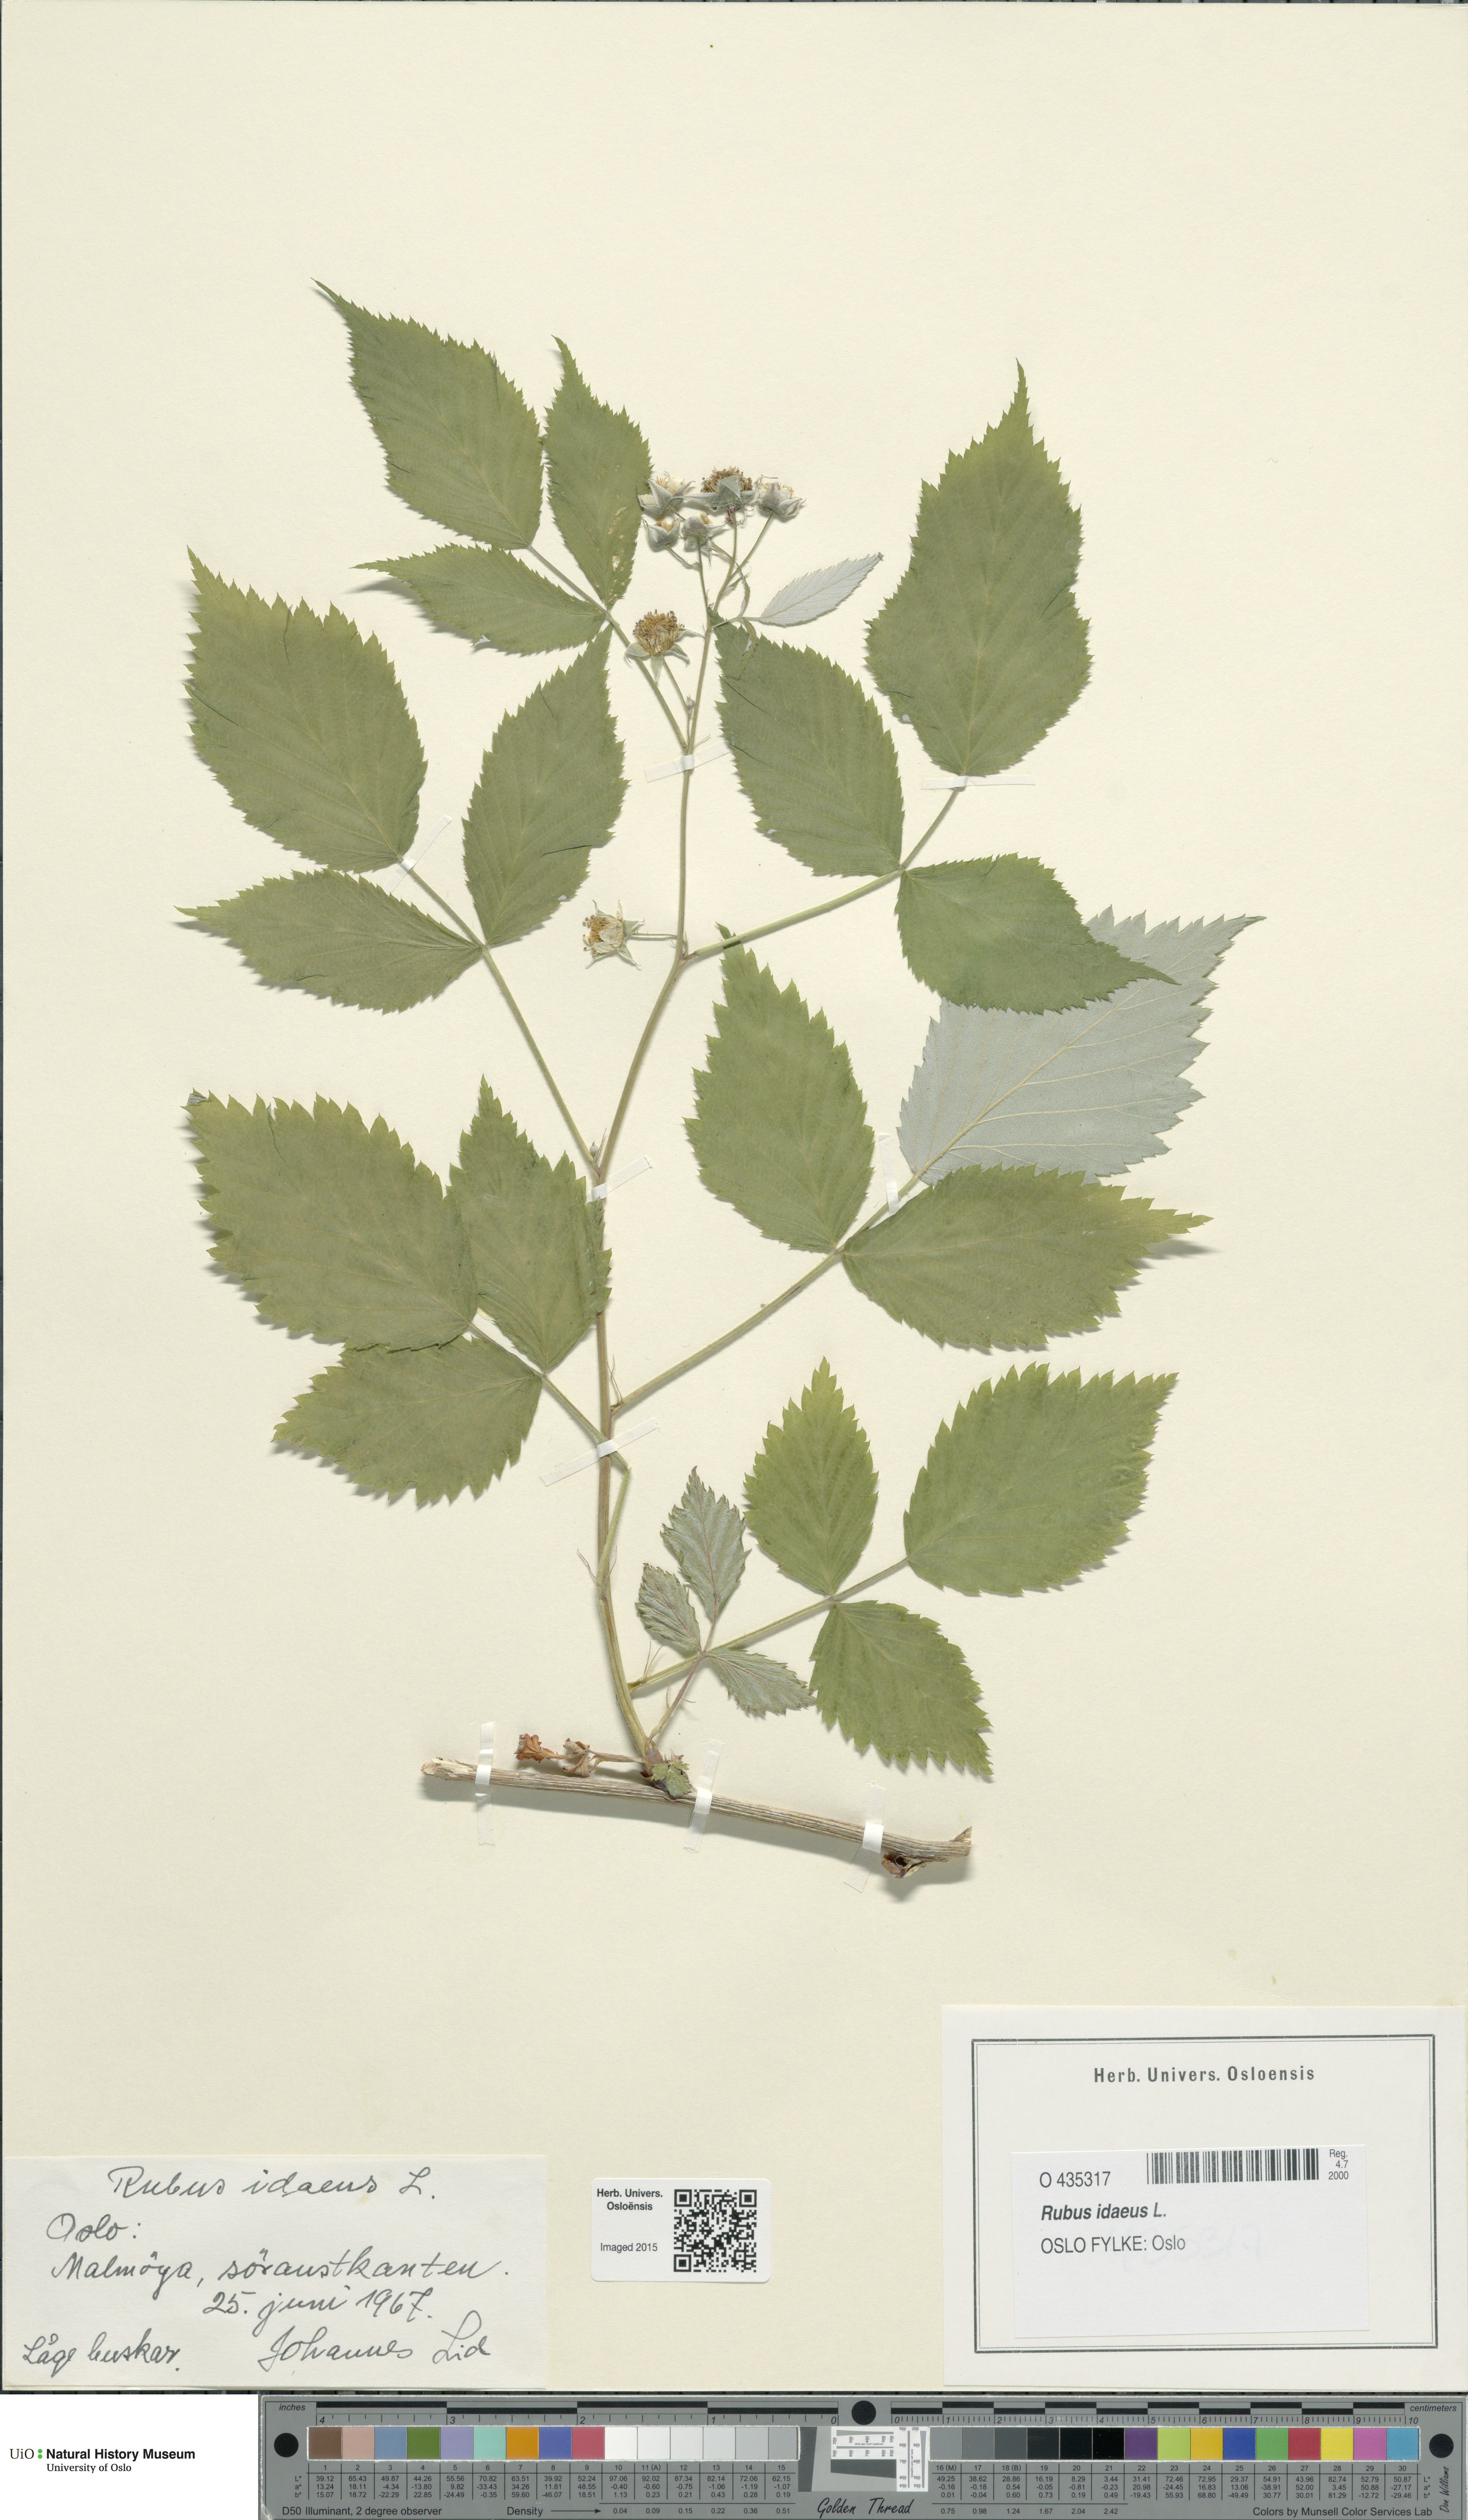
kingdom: Plantae
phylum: Tracheophyta
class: Magnoliopsida
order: Rosales
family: Rosaceae
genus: Rubus
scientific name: Rubus idaeus
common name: Raspberry
